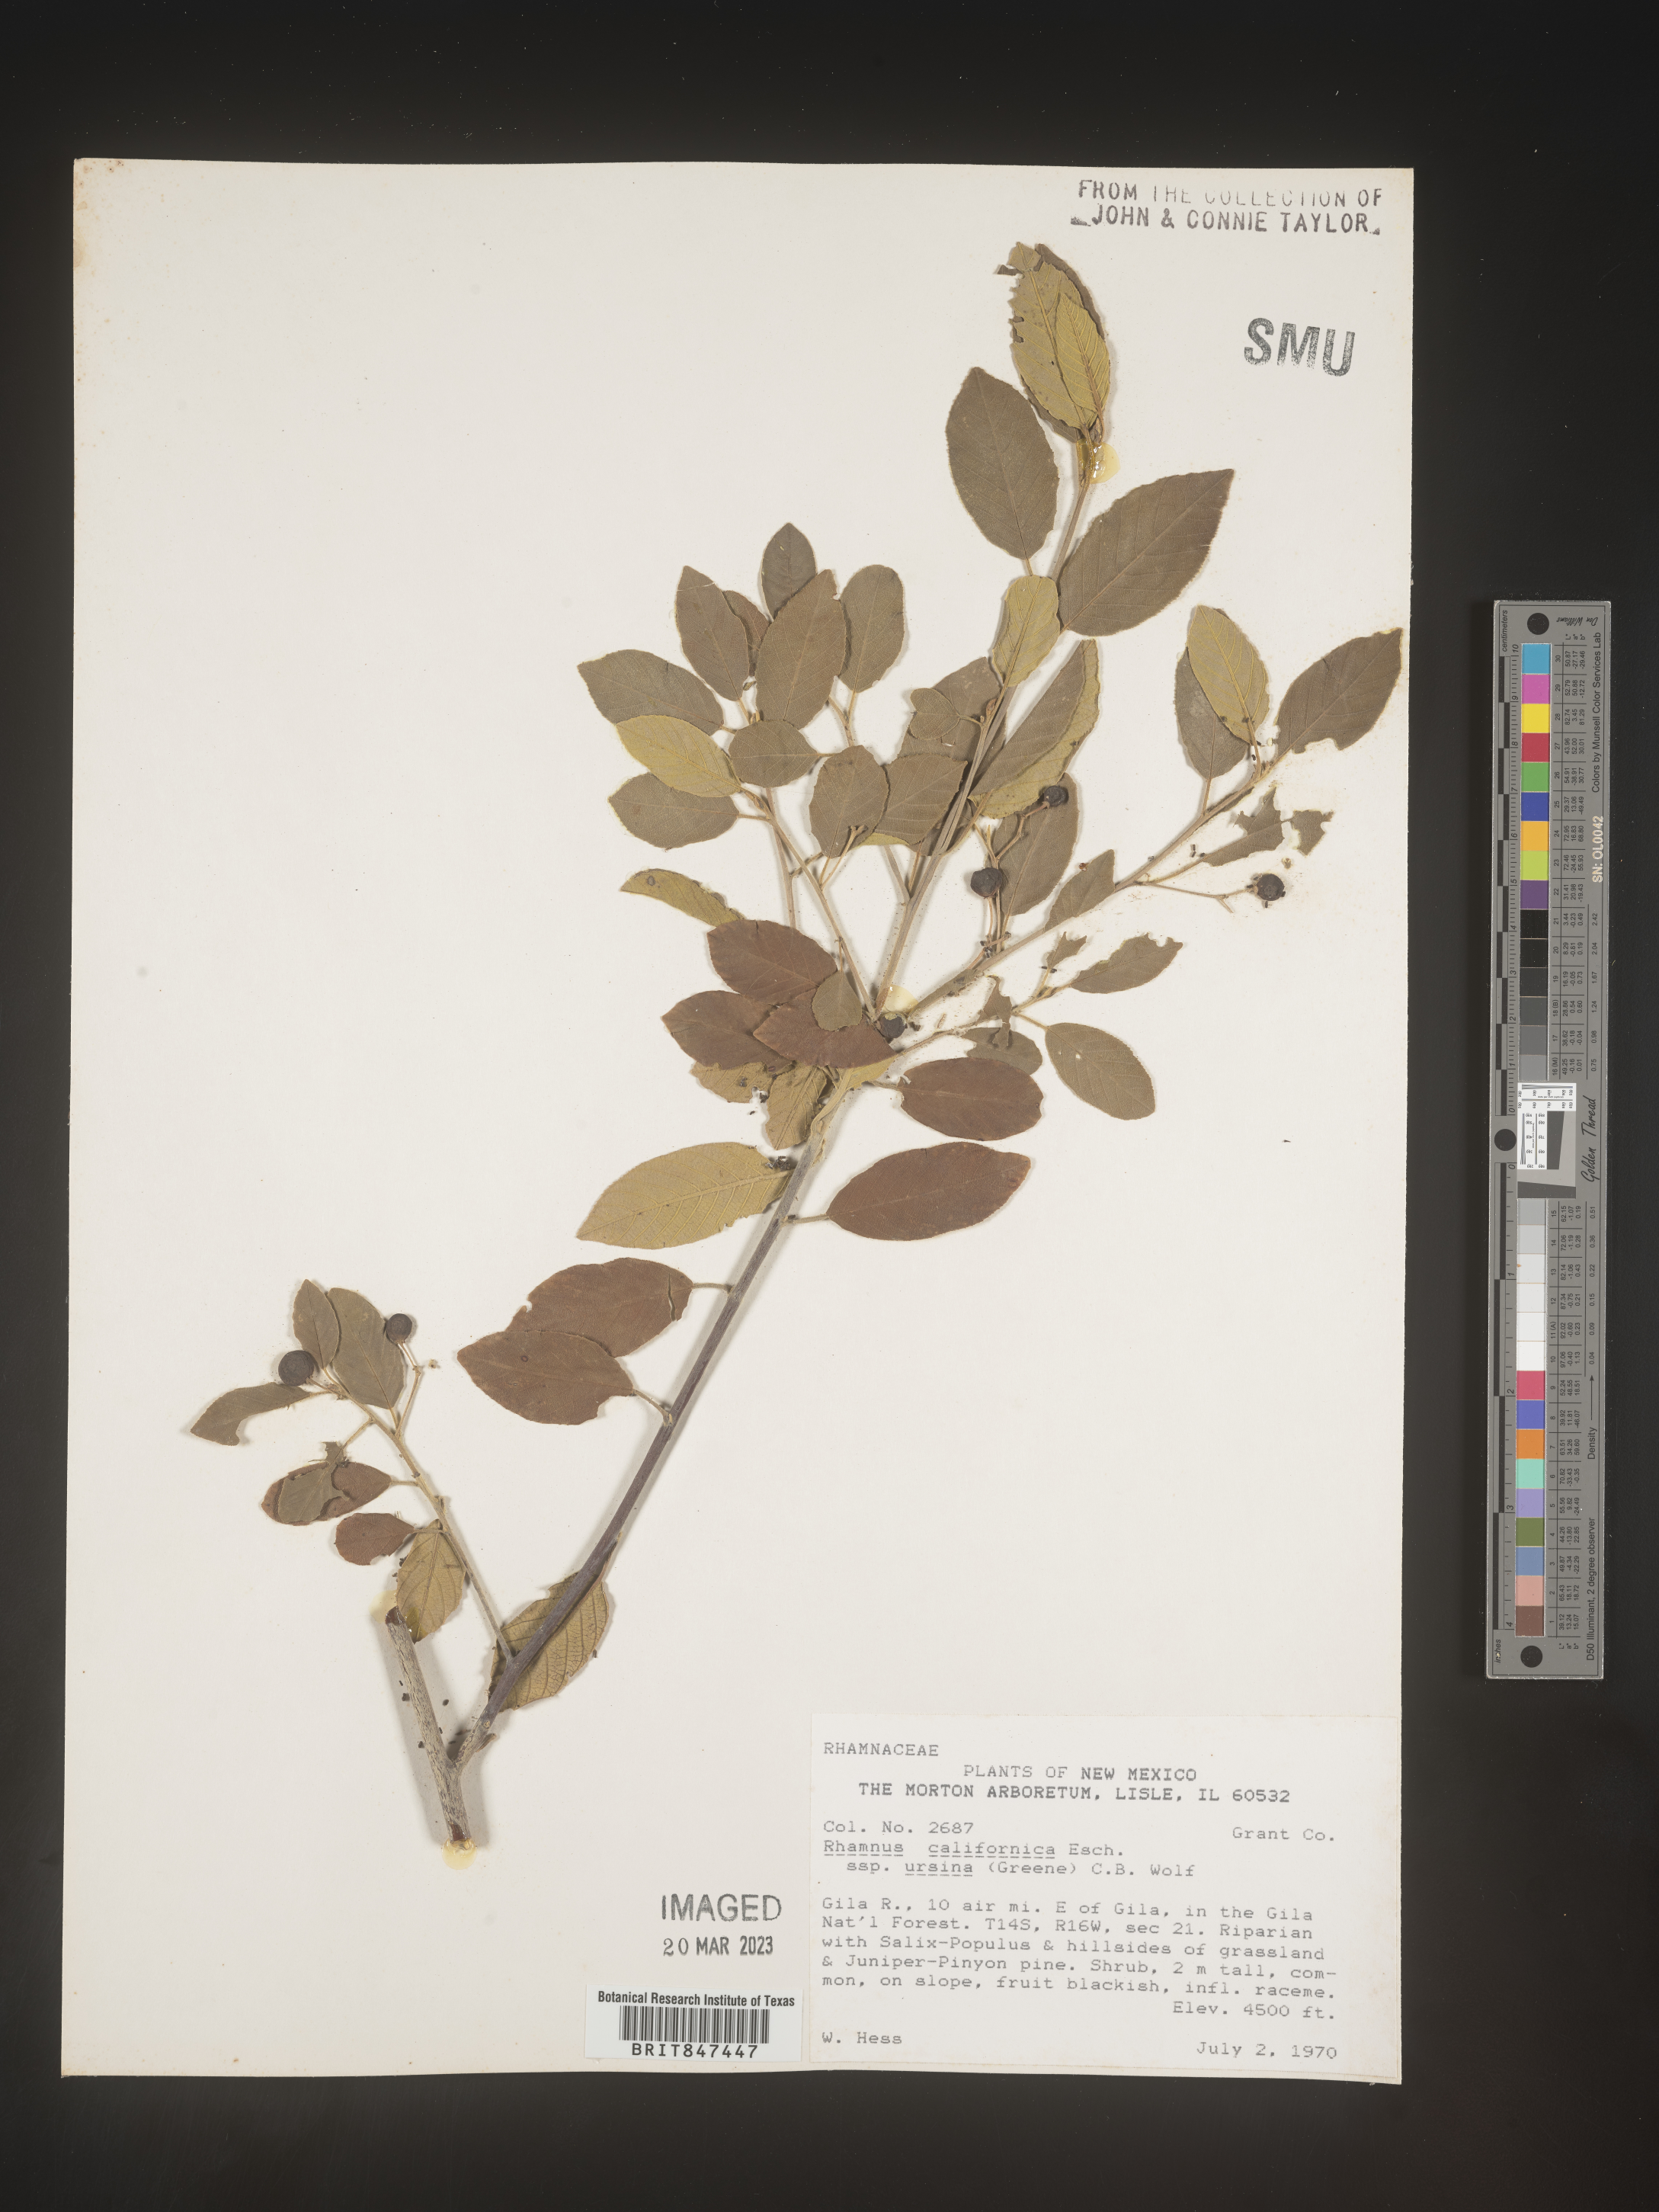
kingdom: Plantae
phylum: Tracheophyta
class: Magnoliopsida
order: Rosales
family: Rhamnaceae
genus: Frangula
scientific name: Frangula californica
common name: California buckthorn
